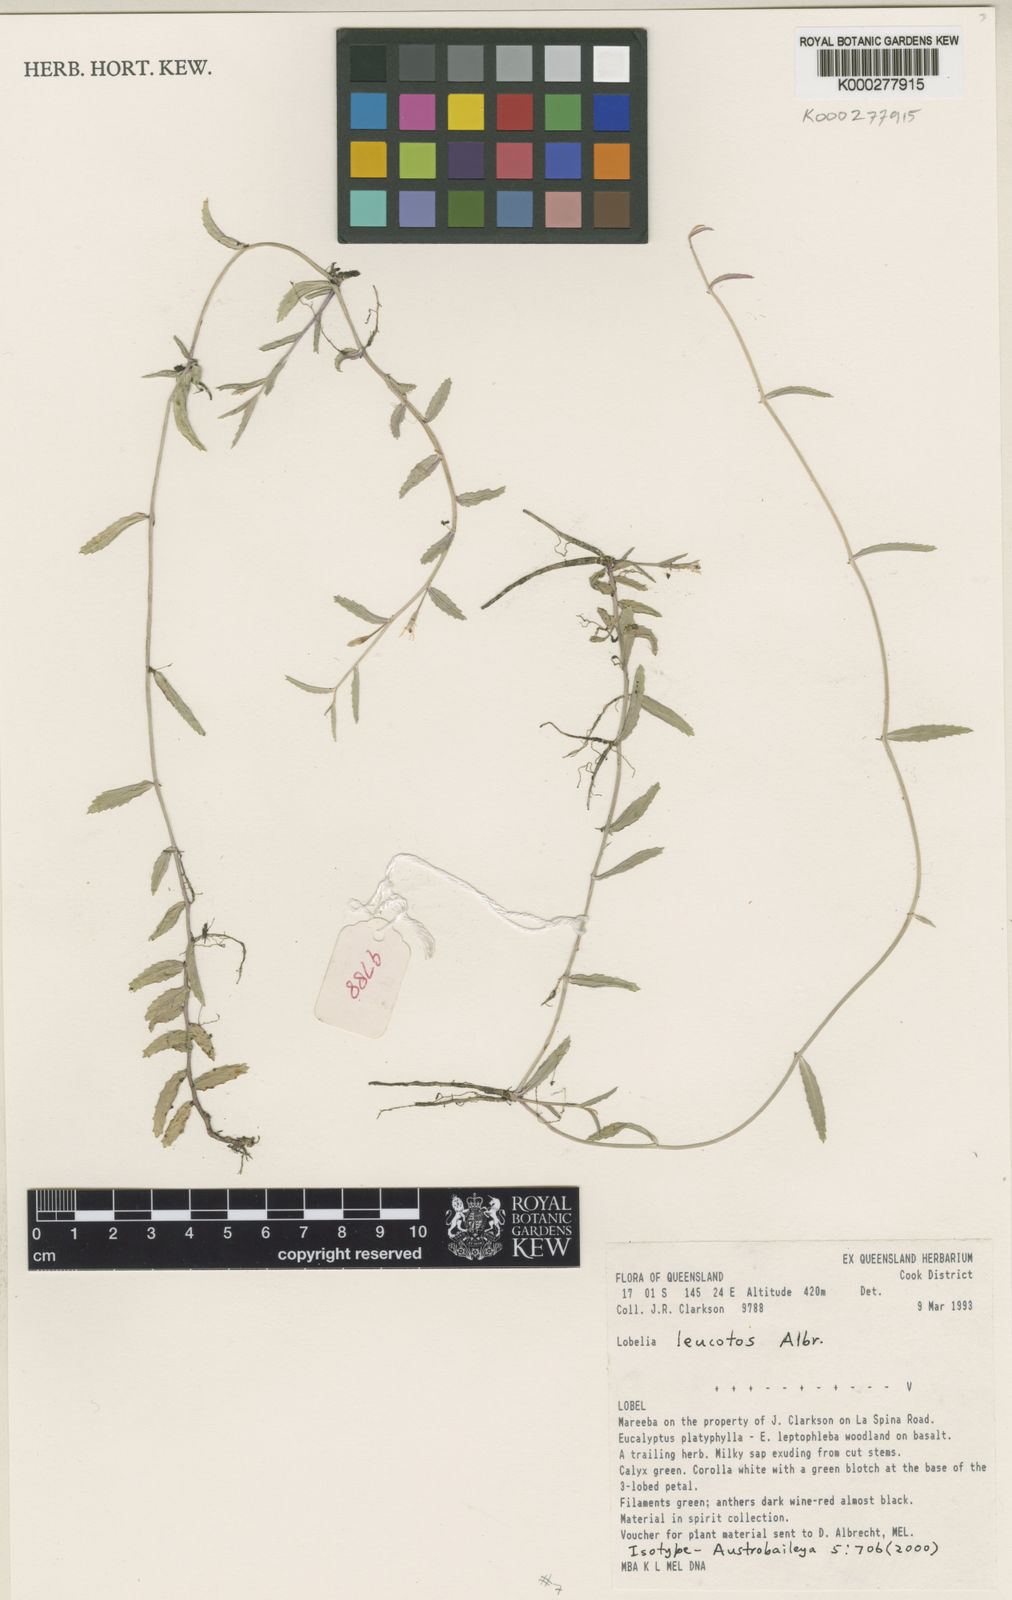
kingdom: Plantae
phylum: Tracheophyta
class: Magnoliopsida
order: Asterales
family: Campanulaceae
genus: Lobelia
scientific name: Lobelia leucotos
